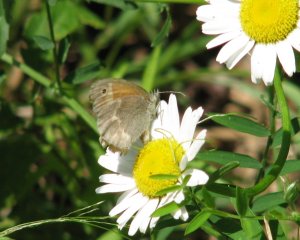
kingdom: Animalia
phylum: Arthropoda
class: Insecta
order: Lepidoptera
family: Nymphalidae
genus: Coenonympha
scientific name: Coenonympha tullia
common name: Large Heath
